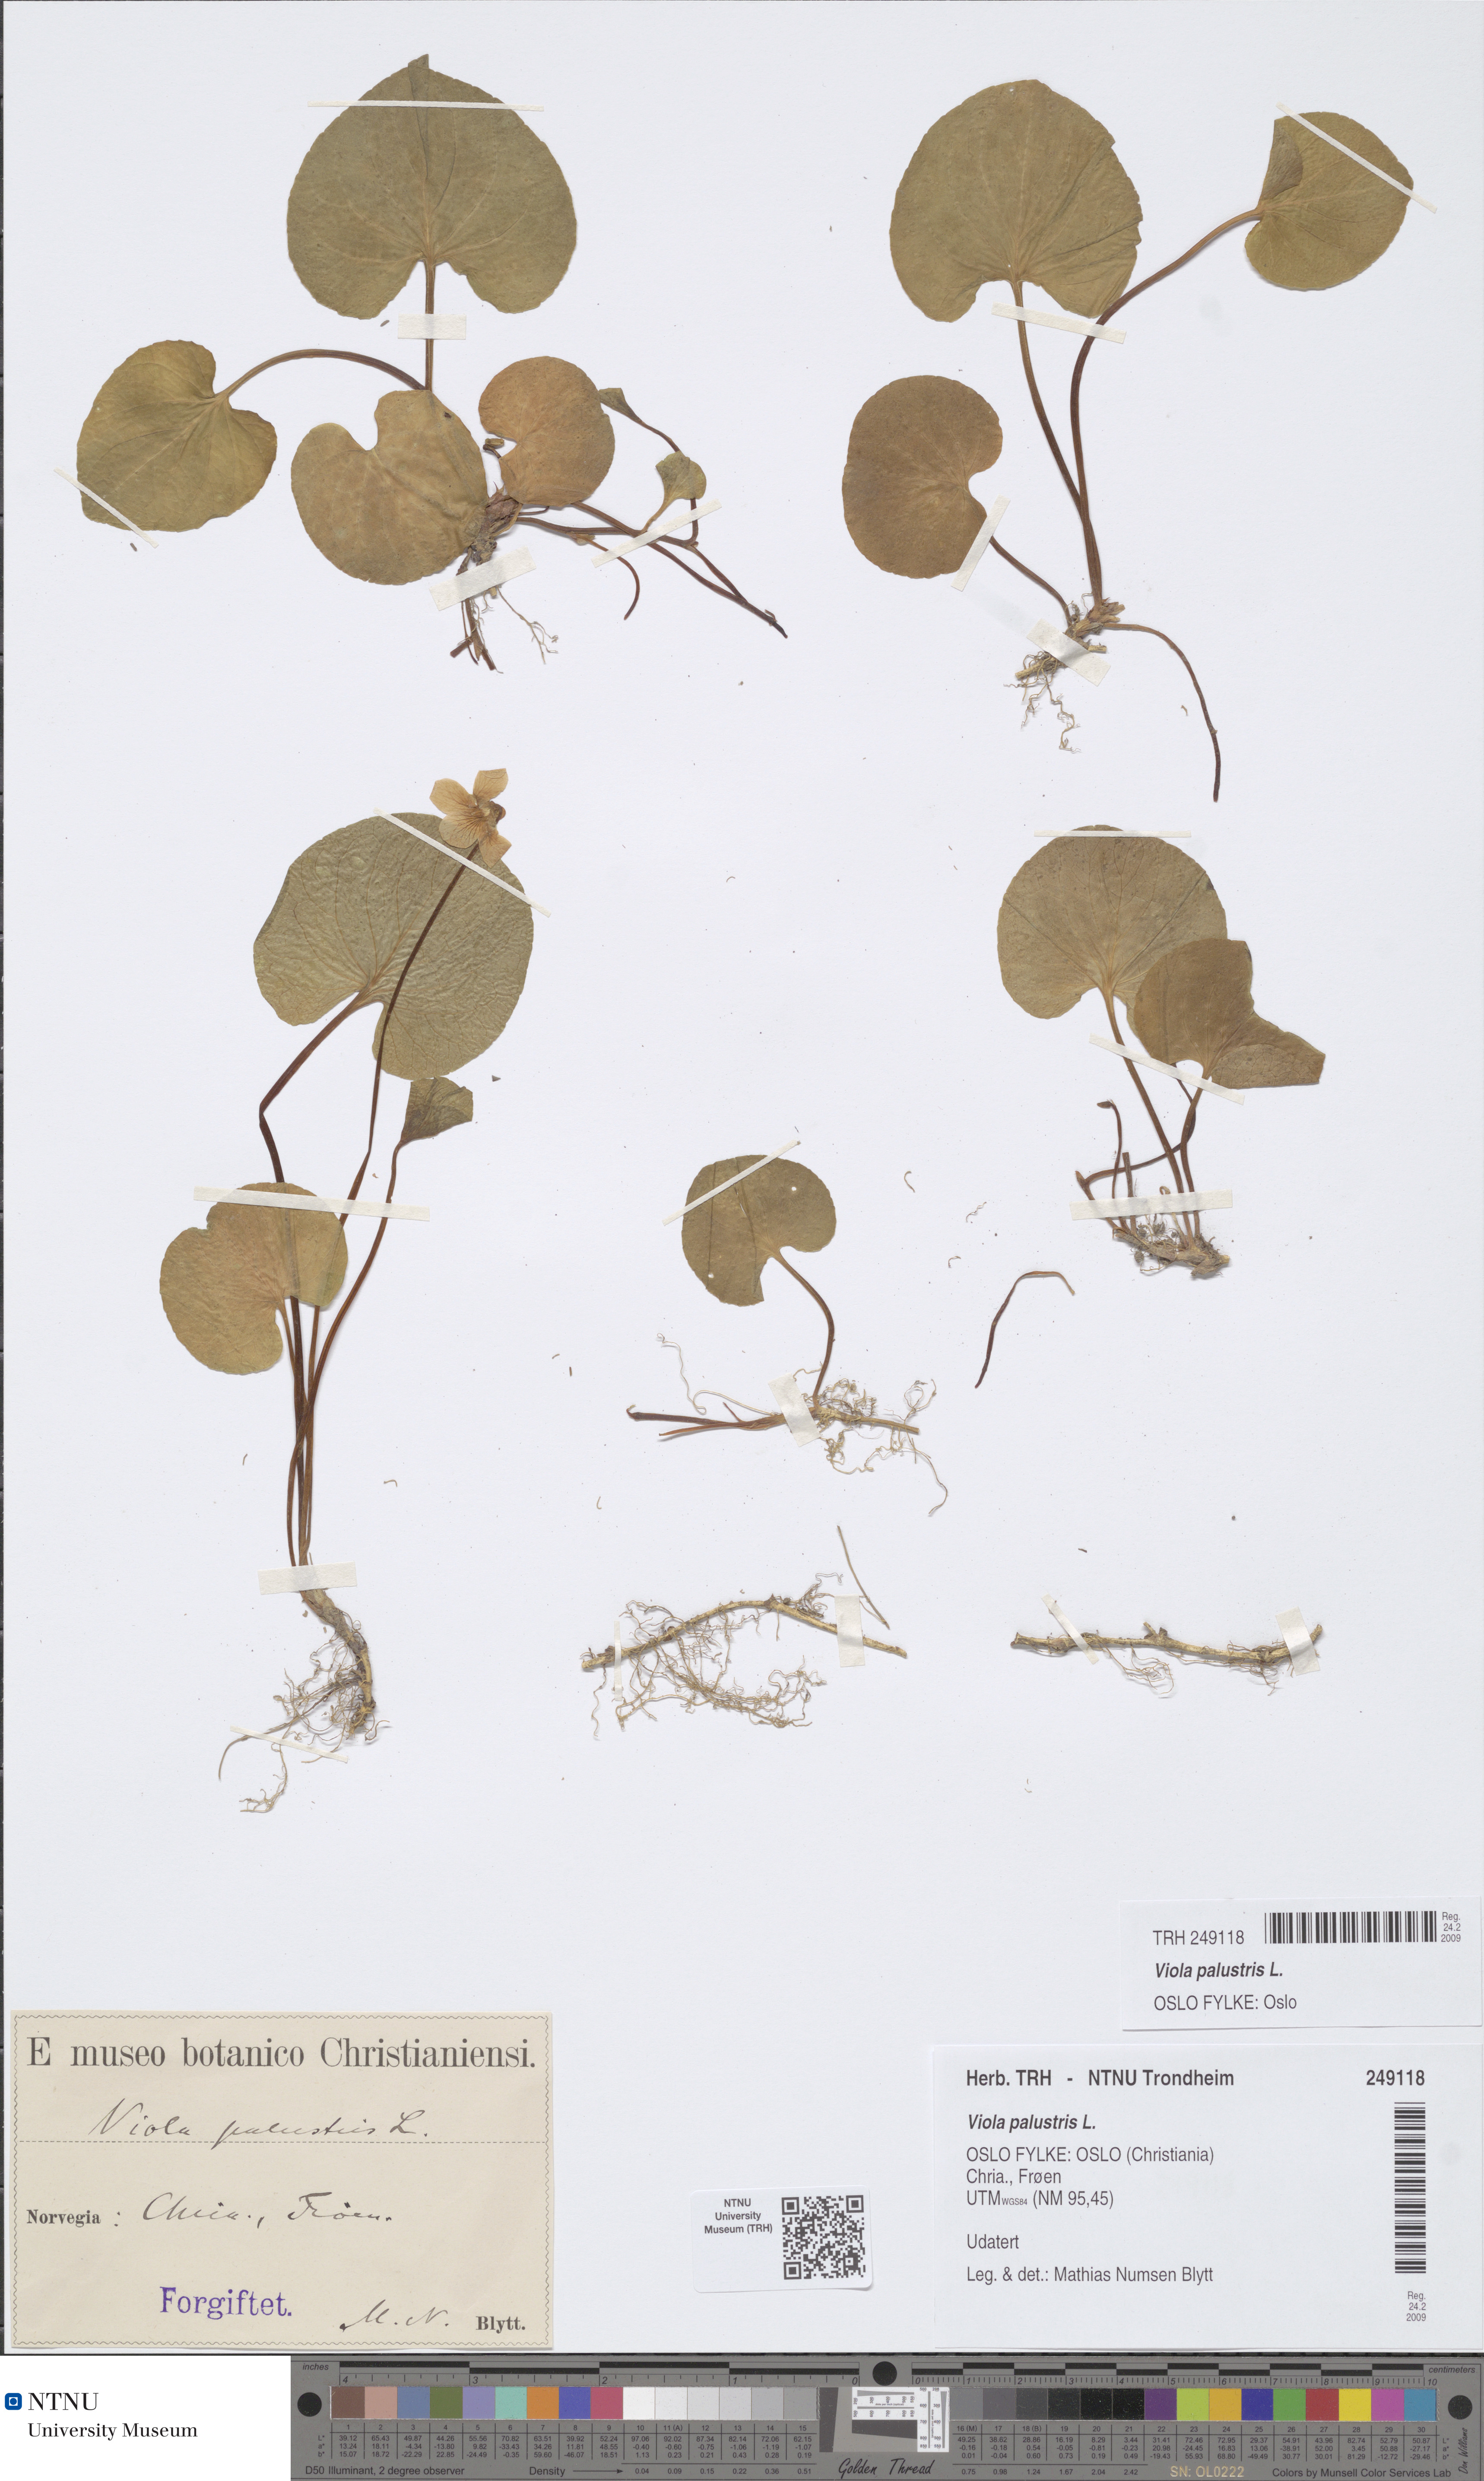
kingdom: Plantae
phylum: Tracheophyta
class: Magnoliopsida
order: Malpighiales
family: Violaceae
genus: Viola
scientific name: Viola palustris
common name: Marsh violet
